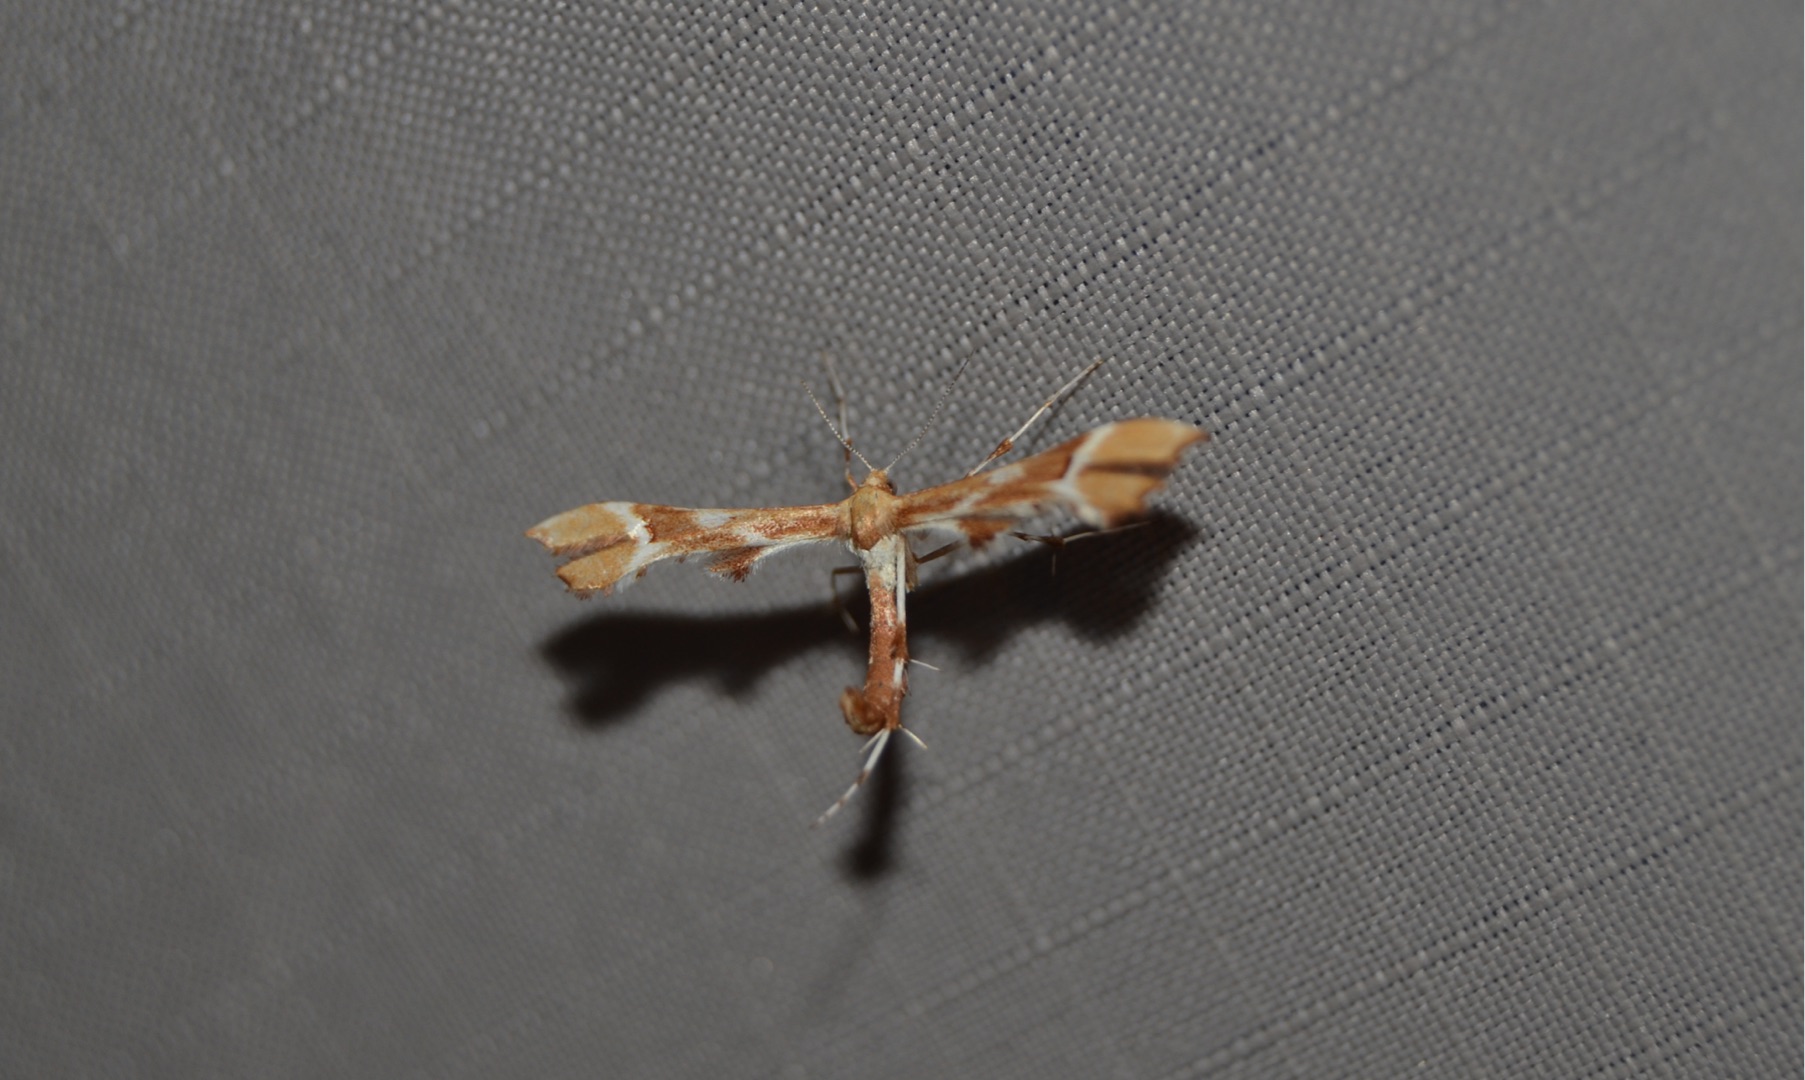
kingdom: Animalia
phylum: Arthropoda
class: Insecta
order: Lepidoptera
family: Pterophoridae
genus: Cnaemidophorus
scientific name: Cnaemidophorus rhododactyla
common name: Rosenknopfjermøl
